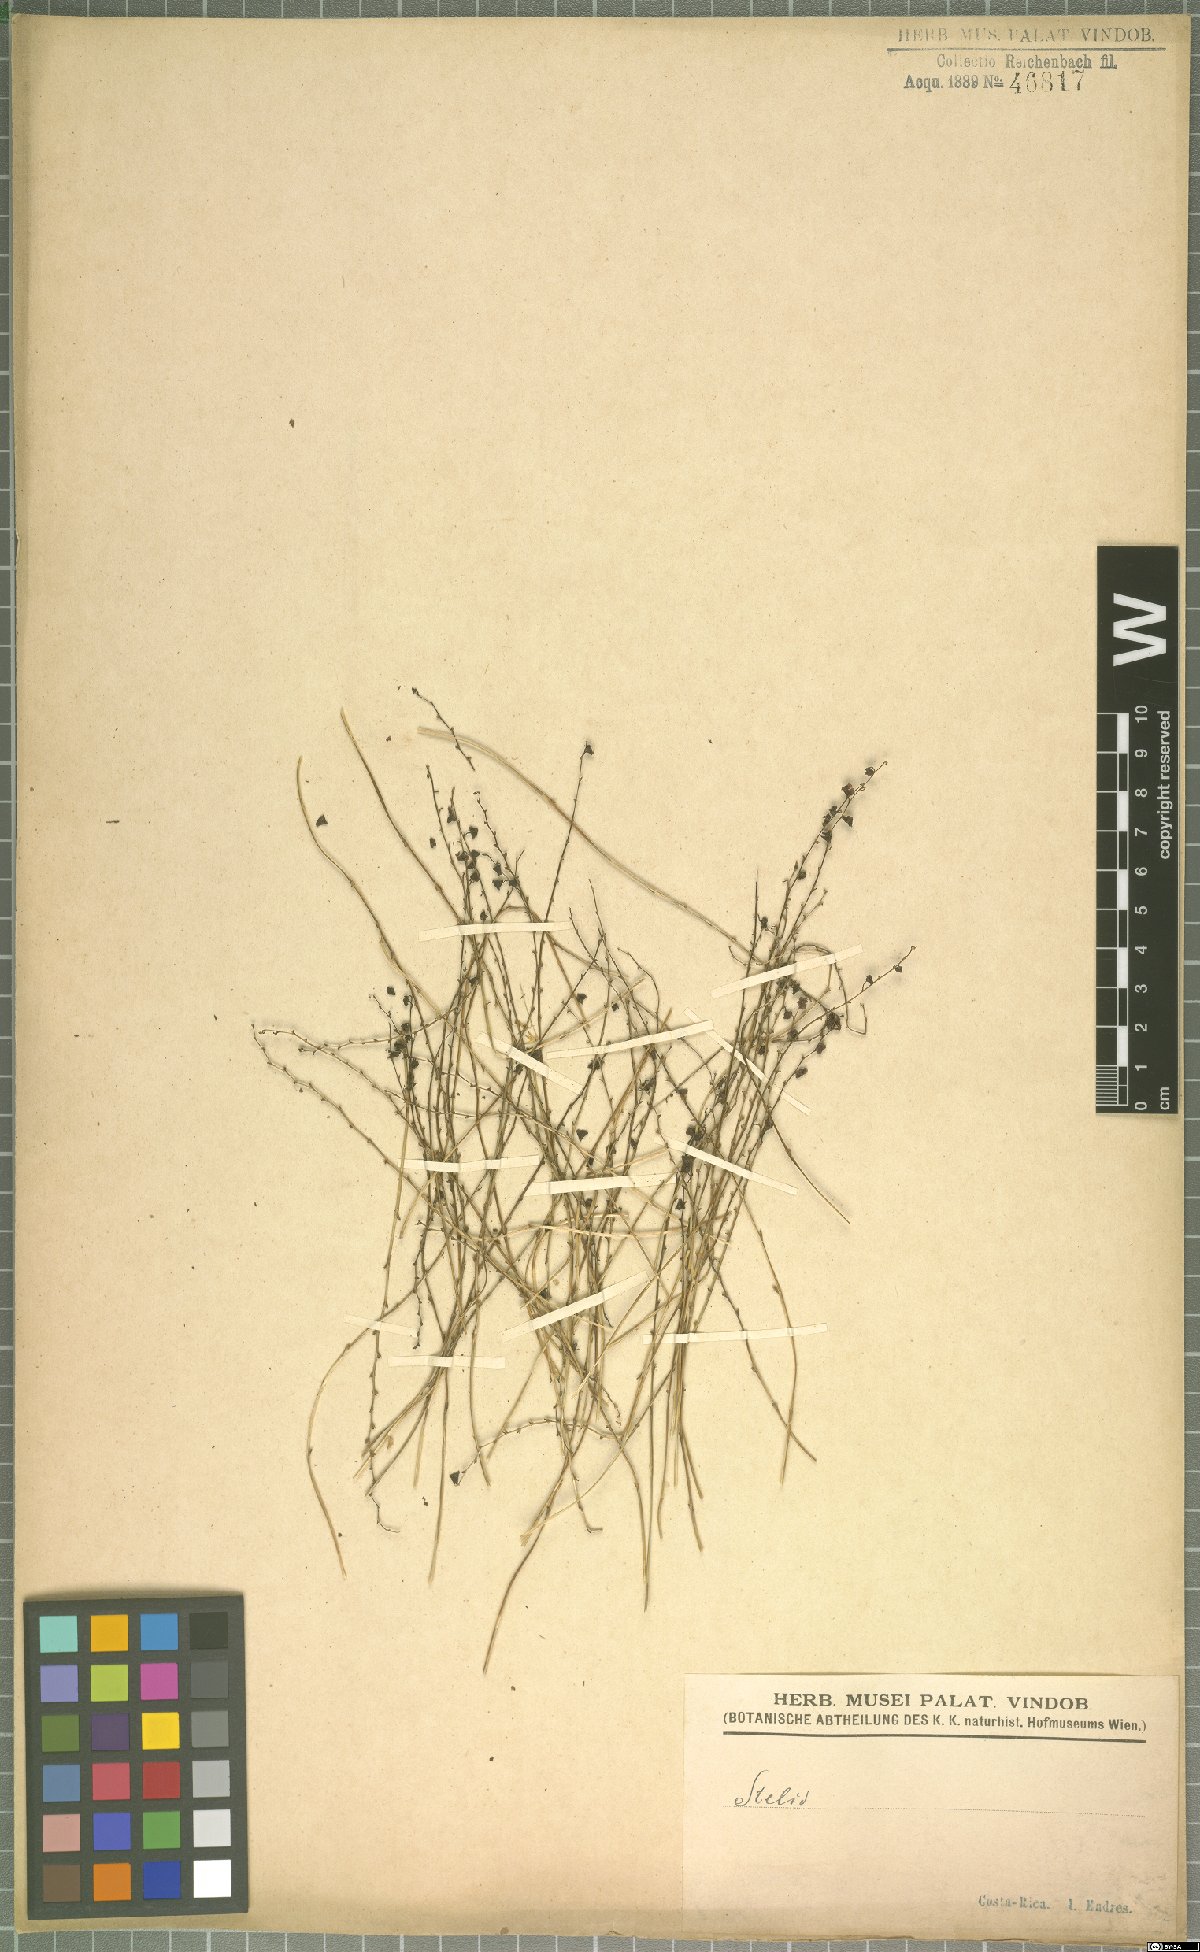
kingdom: Plantae
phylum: Tracheophyta
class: Liliopsida
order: Asparagales
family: Orchidaceae
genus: Stelis
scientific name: Stelis
